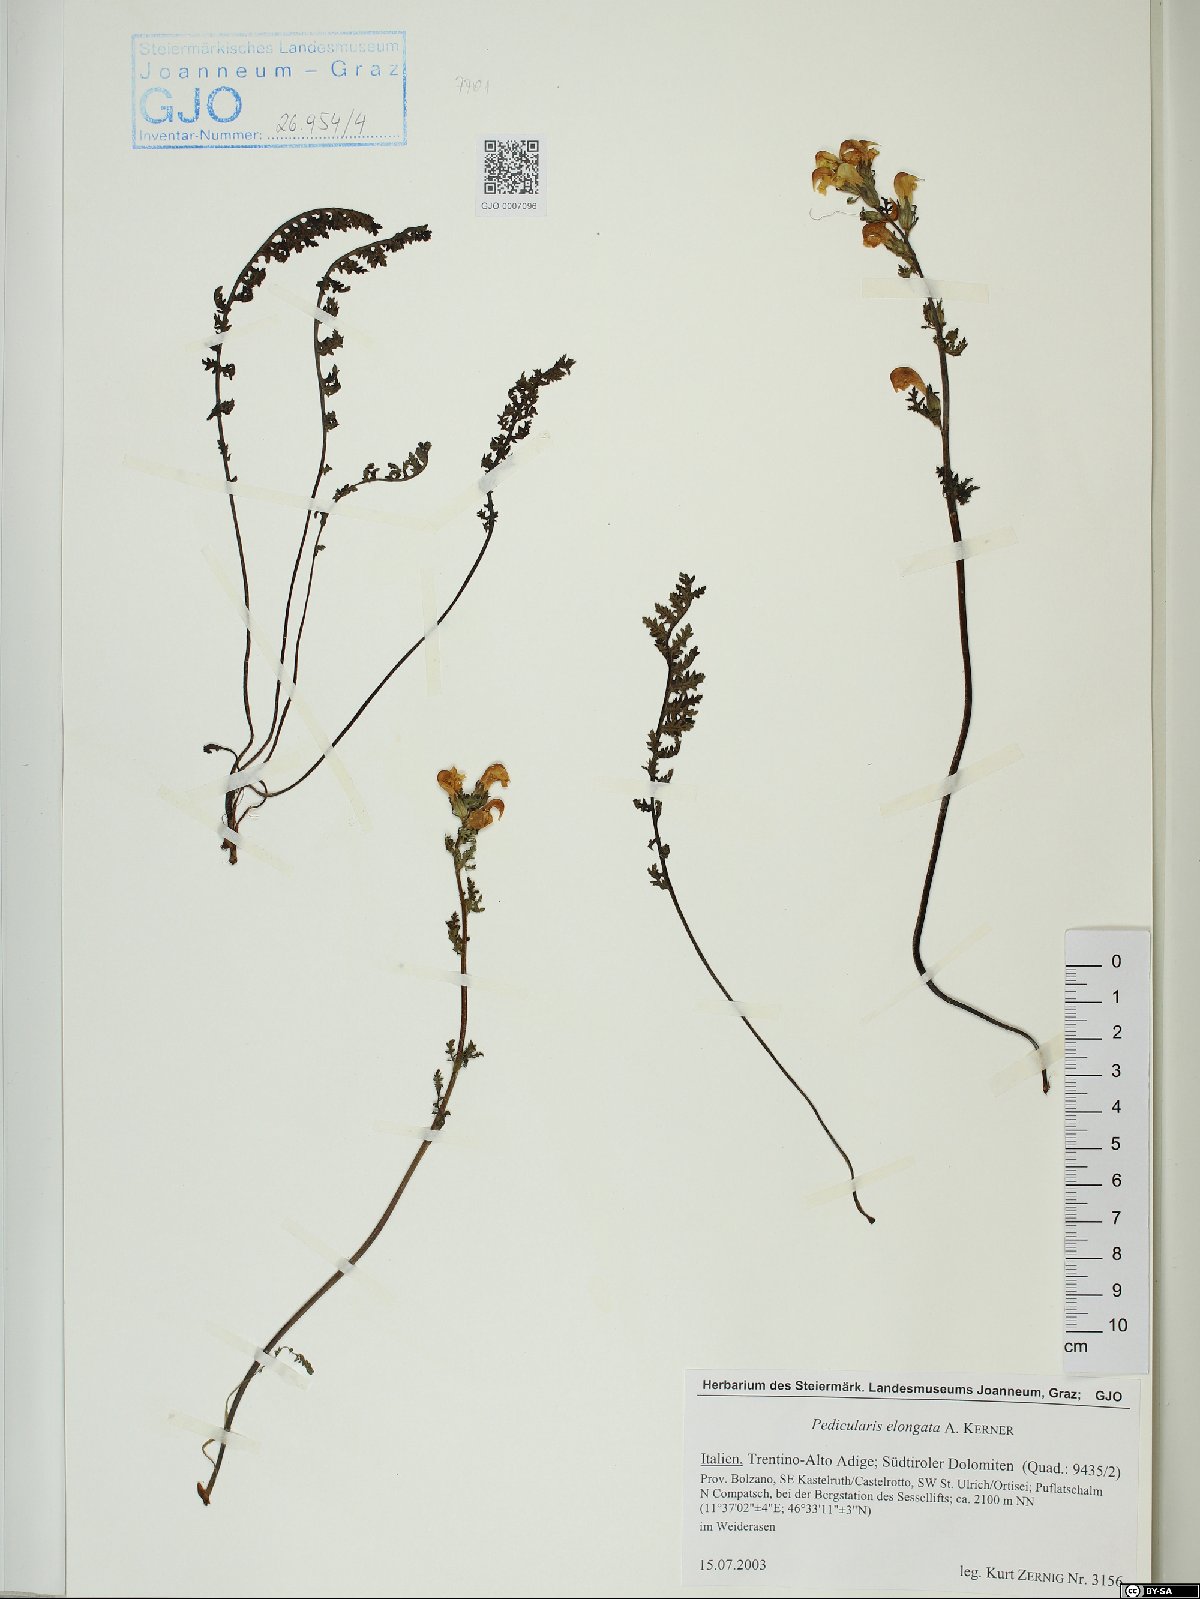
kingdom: Plantae
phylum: Tracheophyta
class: Magnoliopsida
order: Fabales
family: Fabaceae
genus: Oxytropis
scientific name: Oxytropis montana
